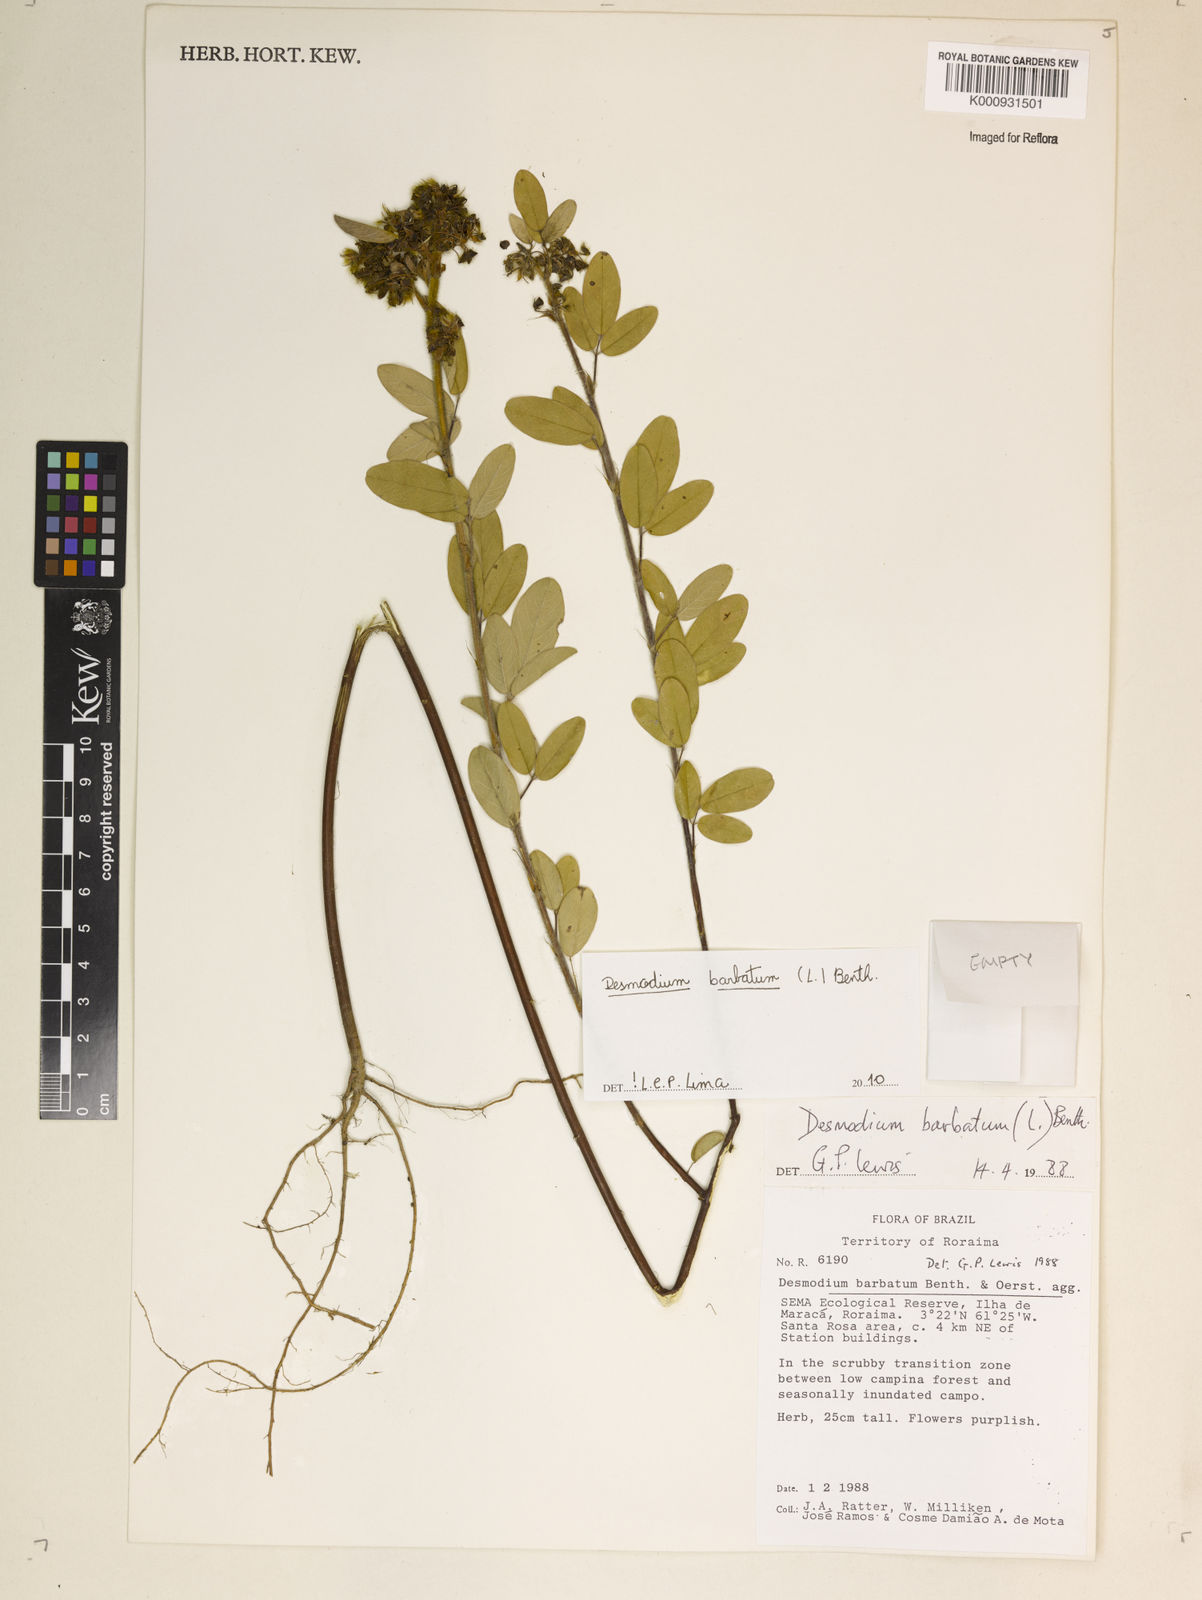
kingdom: Plantae
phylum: Tracheophyta
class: Magnoliopsida
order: Fabales
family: Fabaceae
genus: Grona
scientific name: Grona barbata
